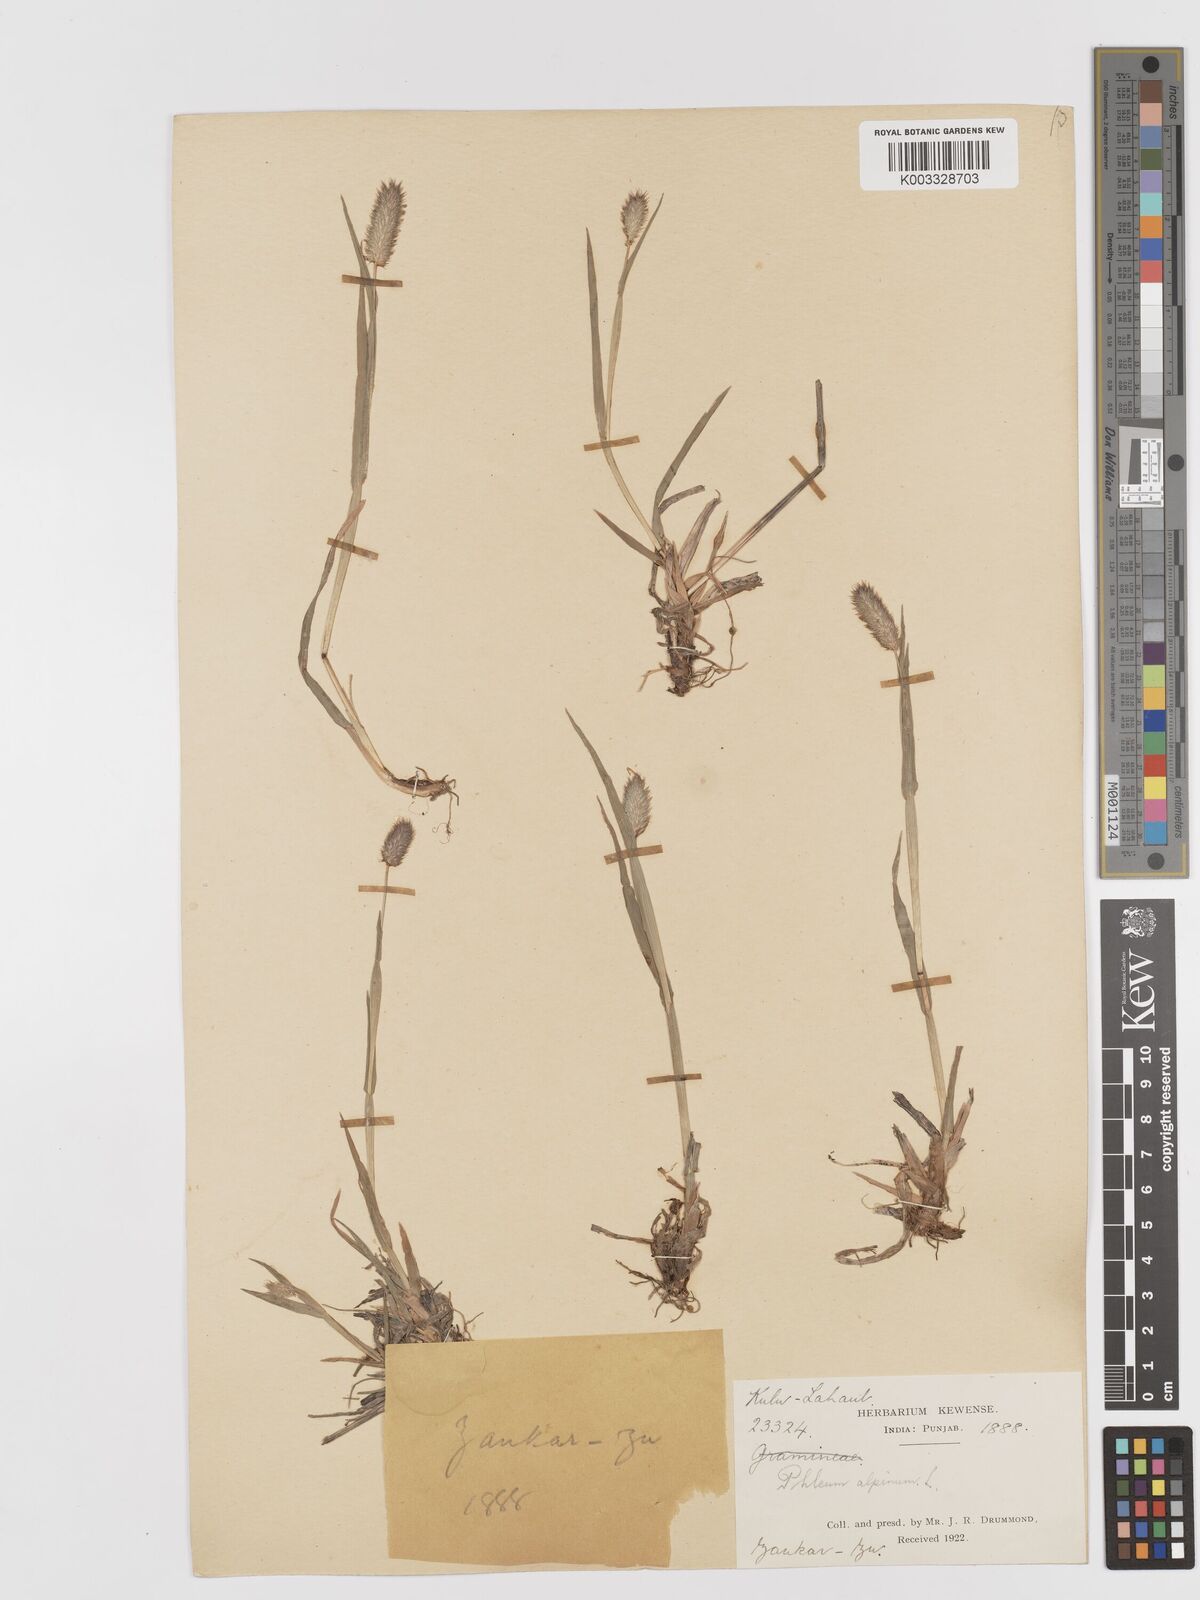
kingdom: Plantae
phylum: Tracheophyta
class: Liliopsida
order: Poales
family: Poaceae
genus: Phleum
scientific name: Phleum alpinum
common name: Alpine cat's-tail
